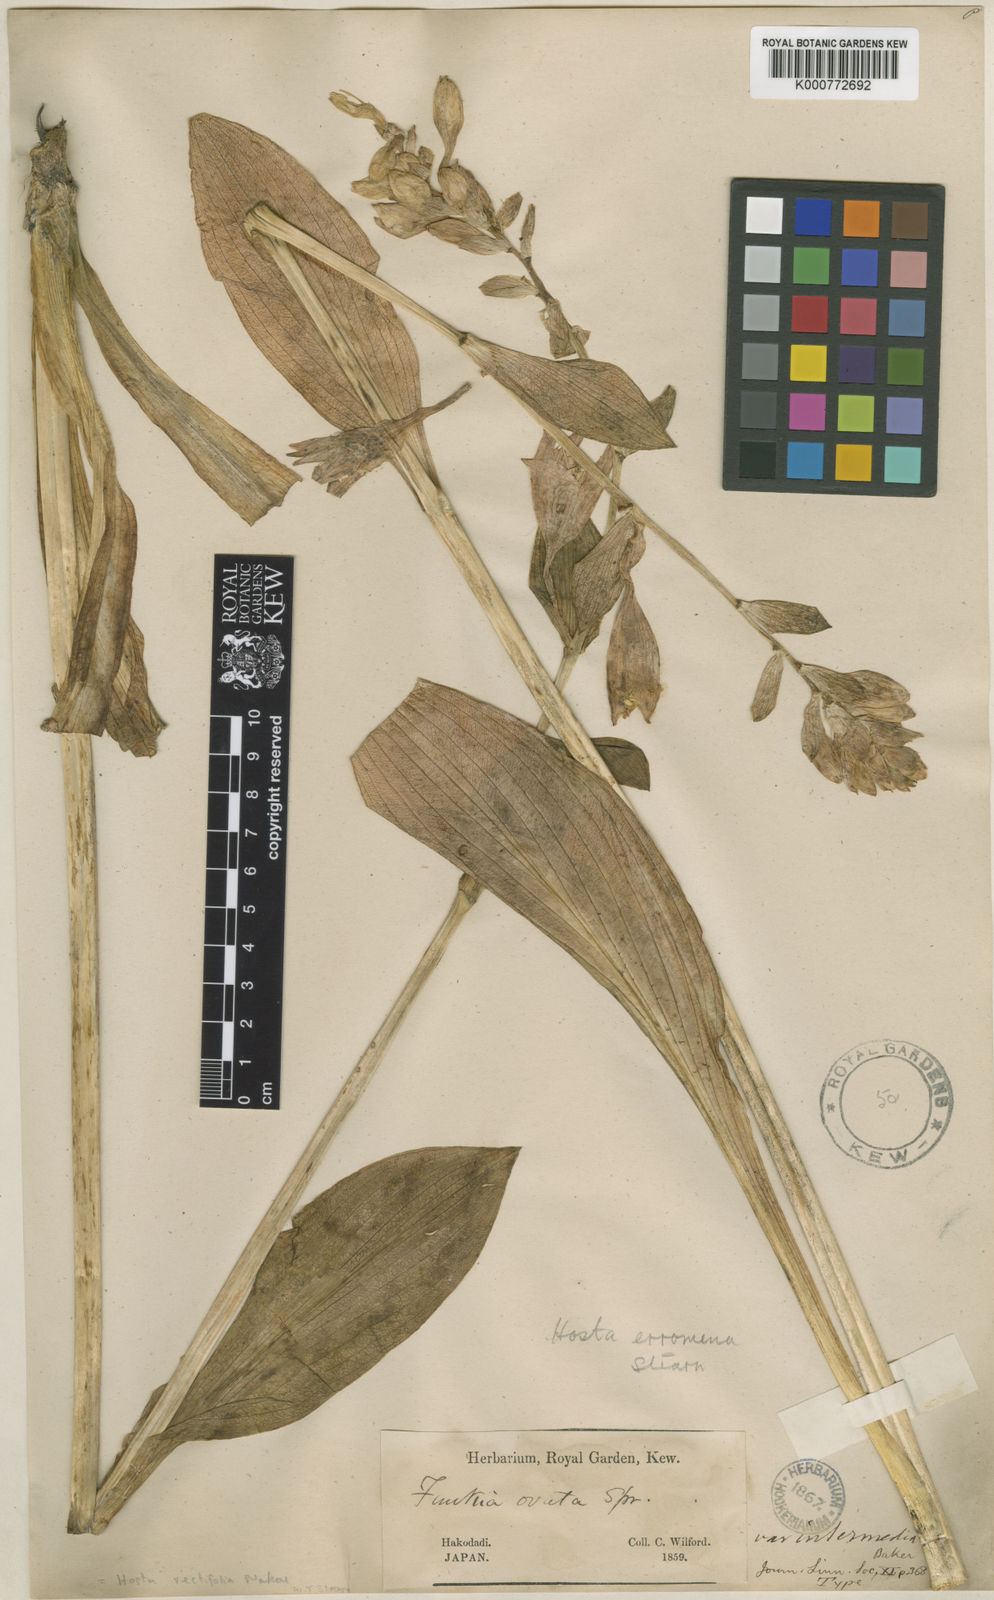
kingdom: Plantae
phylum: Tracheophyta
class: Liliopsida
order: Asparagales
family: Asparagaceae
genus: Hosta
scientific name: Hosta sieboldii
